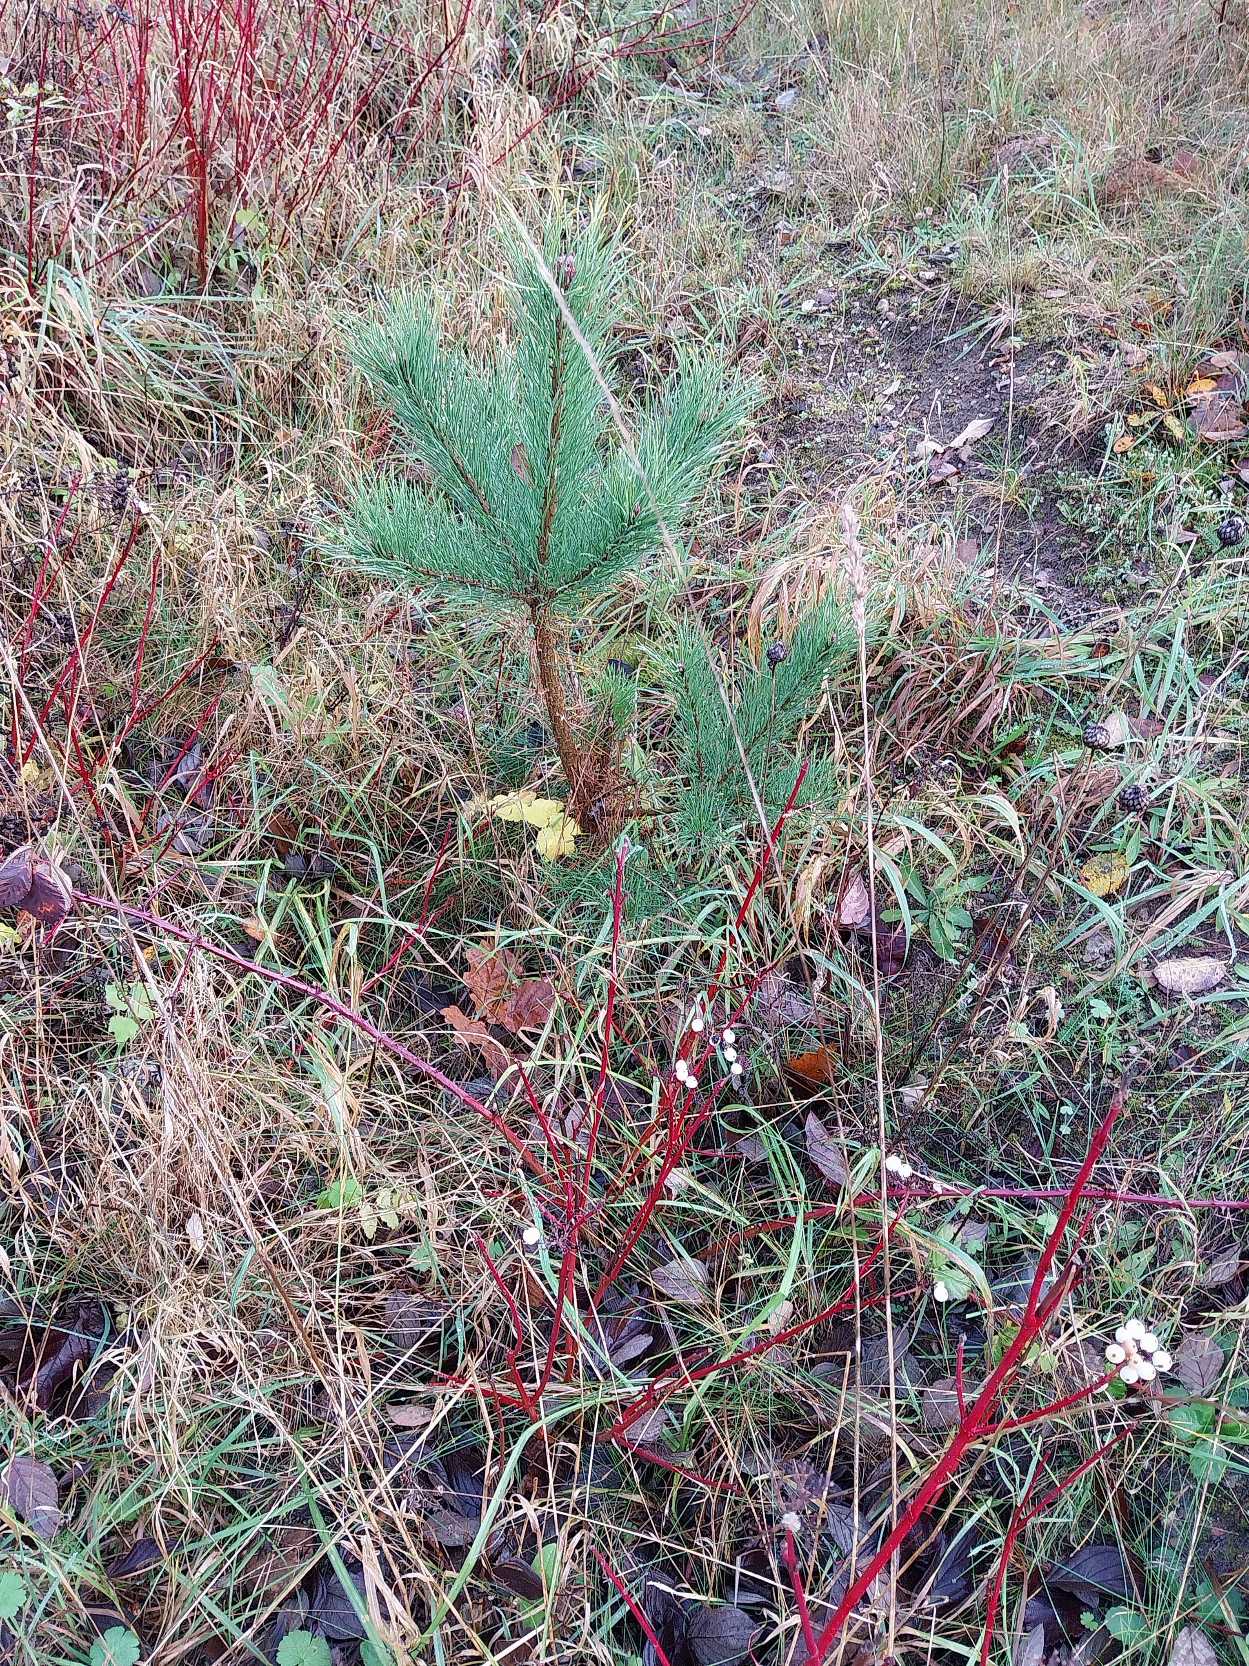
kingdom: Plantae
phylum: Tracheophyta
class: Pinopsida
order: Pinales
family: Pinaceae
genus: Pinus
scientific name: Pinus sylvestris
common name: Skov-fyr
